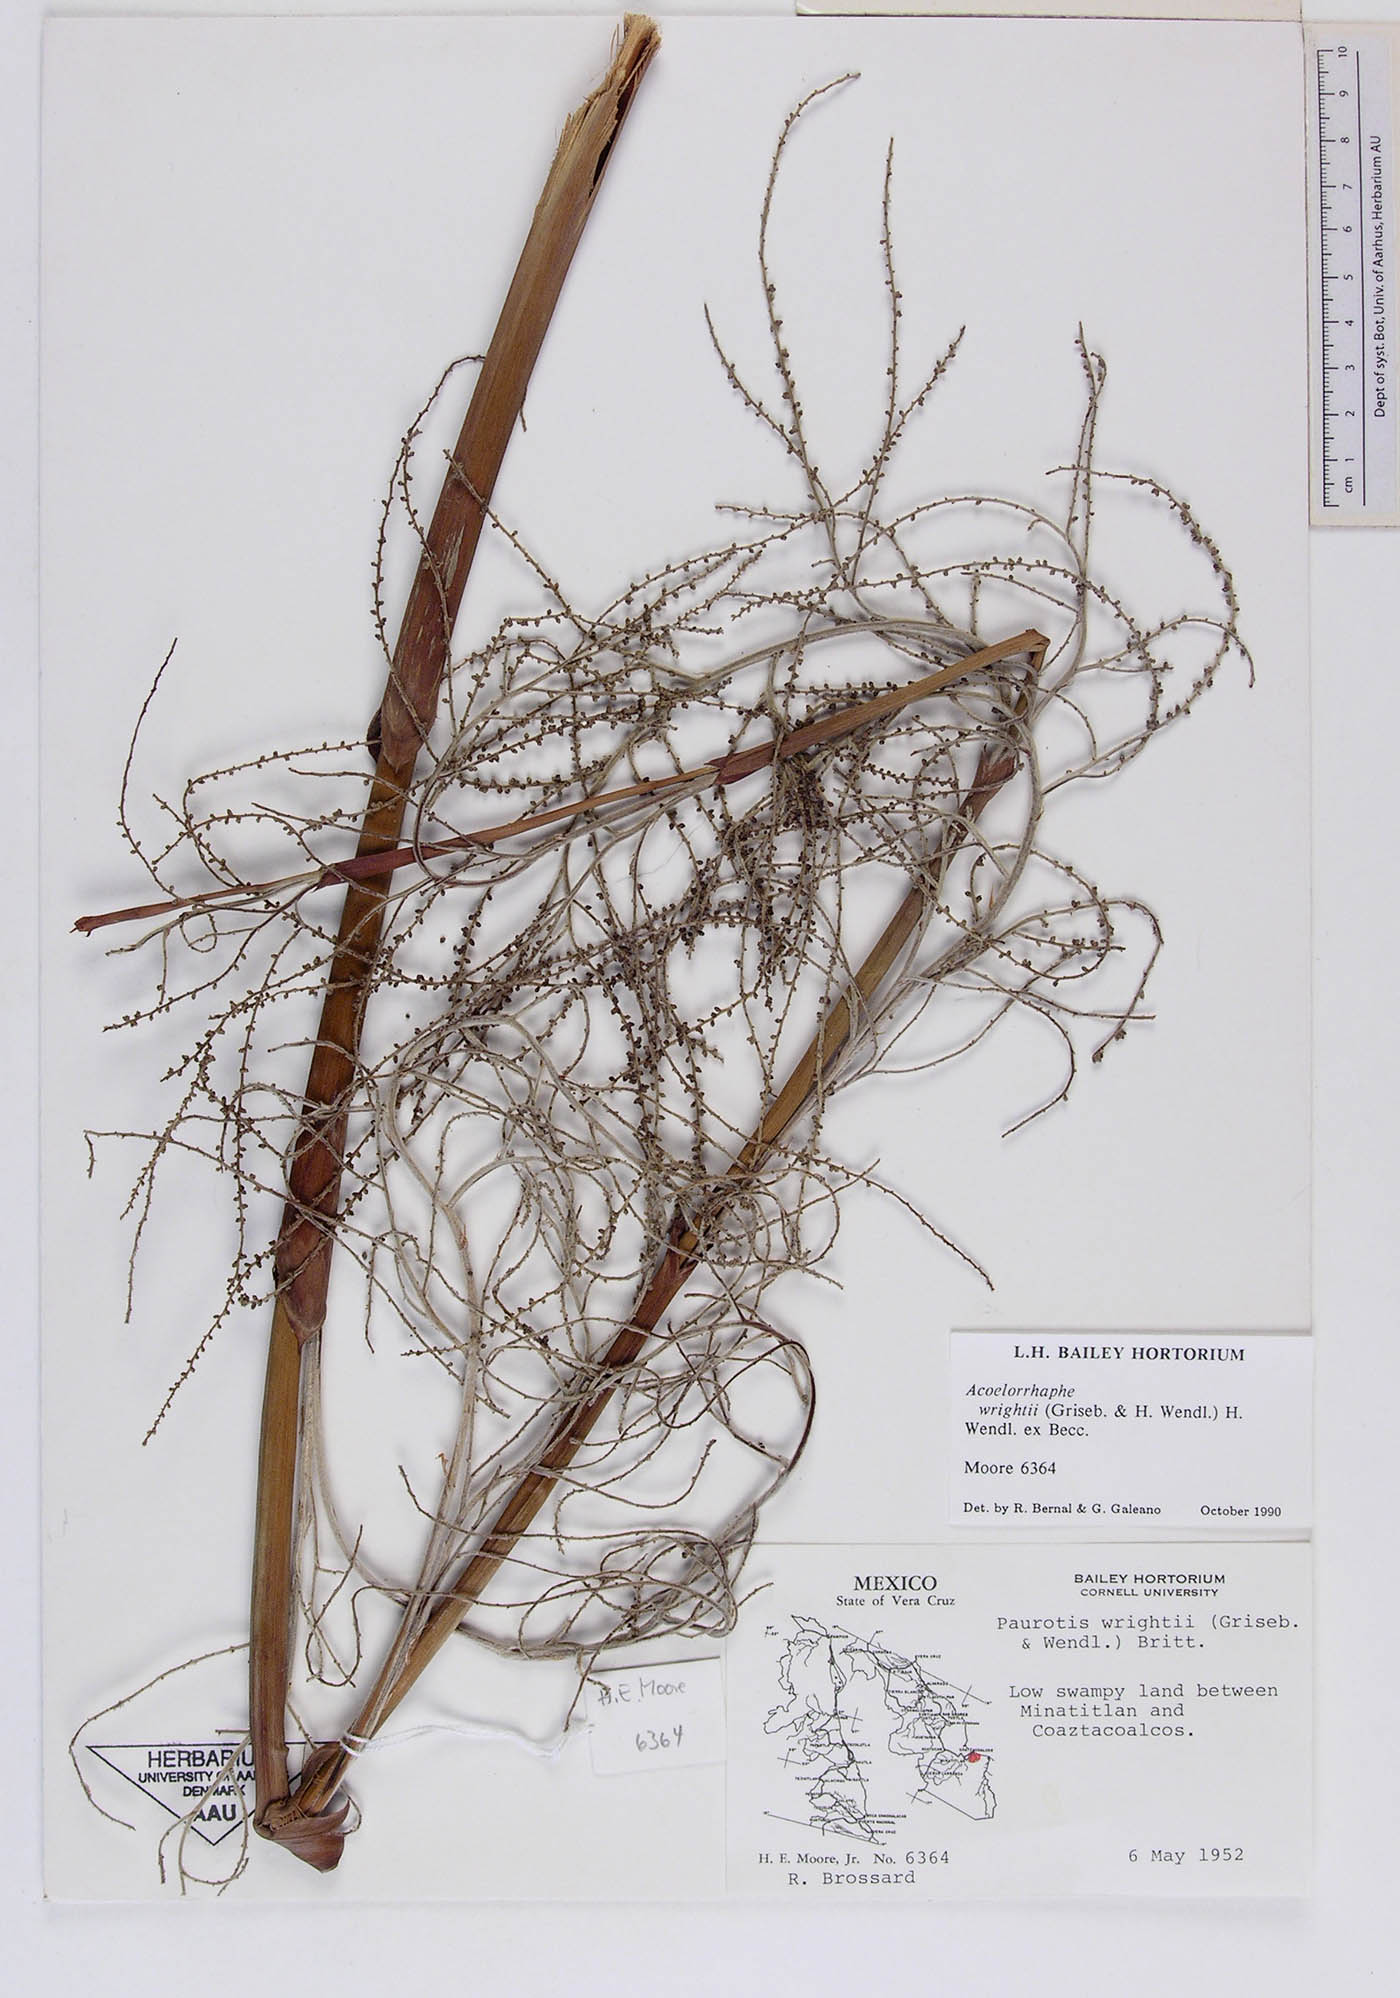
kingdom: Plantae
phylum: Tracheophyta
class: Liliopsida
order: Arecales
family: Arecaceae
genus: Acoelorraphe
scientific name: Acoelorraphe wrightii
